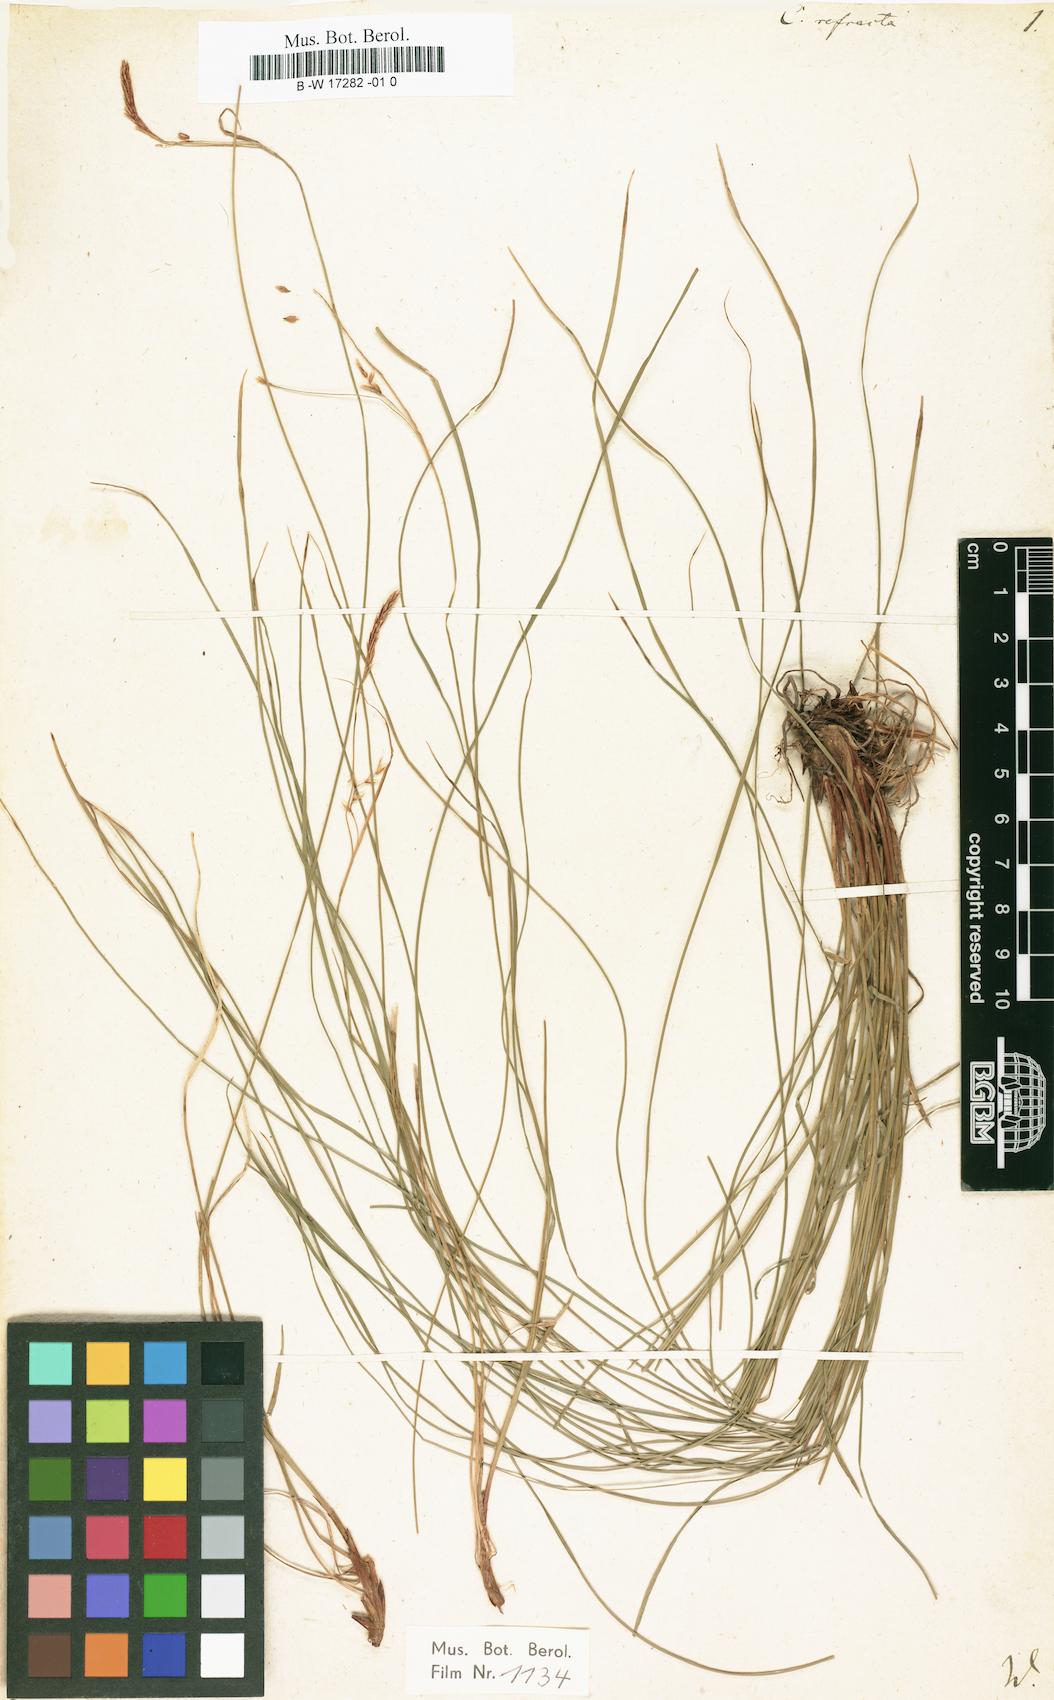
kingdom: Plantae
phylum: Tracheophyta
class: Liliopsida
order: Poales
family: Cyperaceae
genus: Carex
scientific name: Carex
